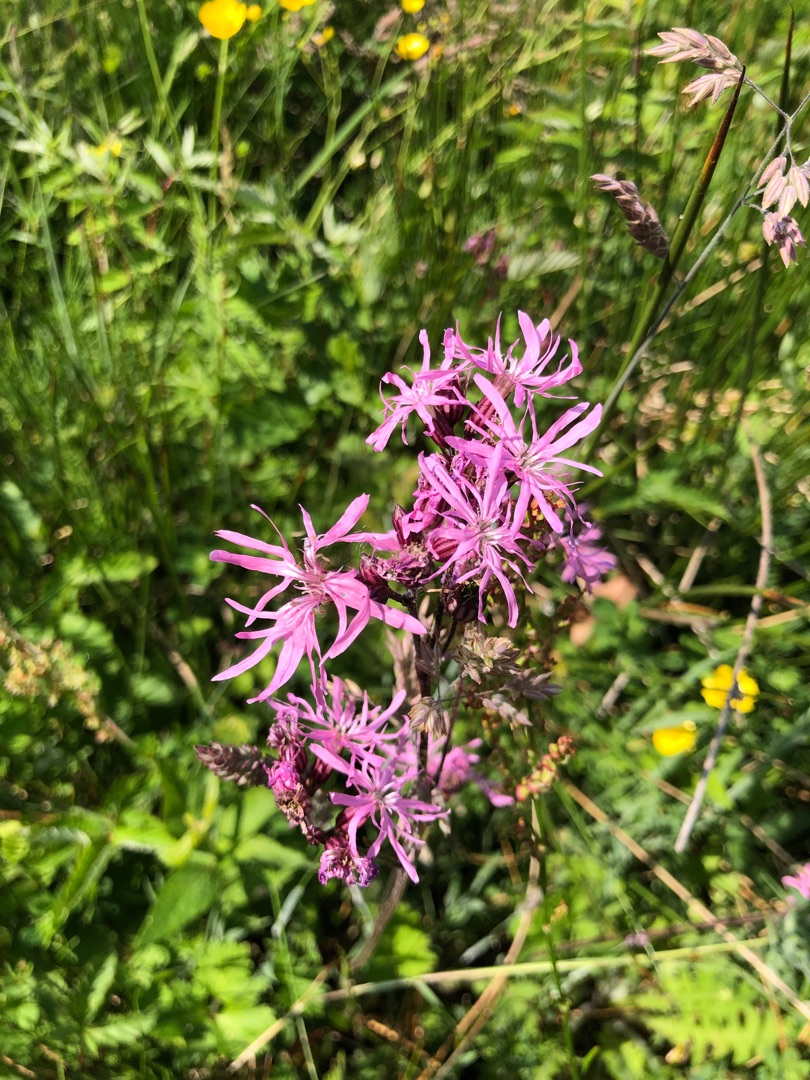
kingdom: Plantae
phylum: Tracheophyta
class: Magnoliopsida
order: Caryophyllales
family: Caryophyllaceae
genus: Silene
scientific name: Silene flos-cuculi
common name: Trævlekrone
